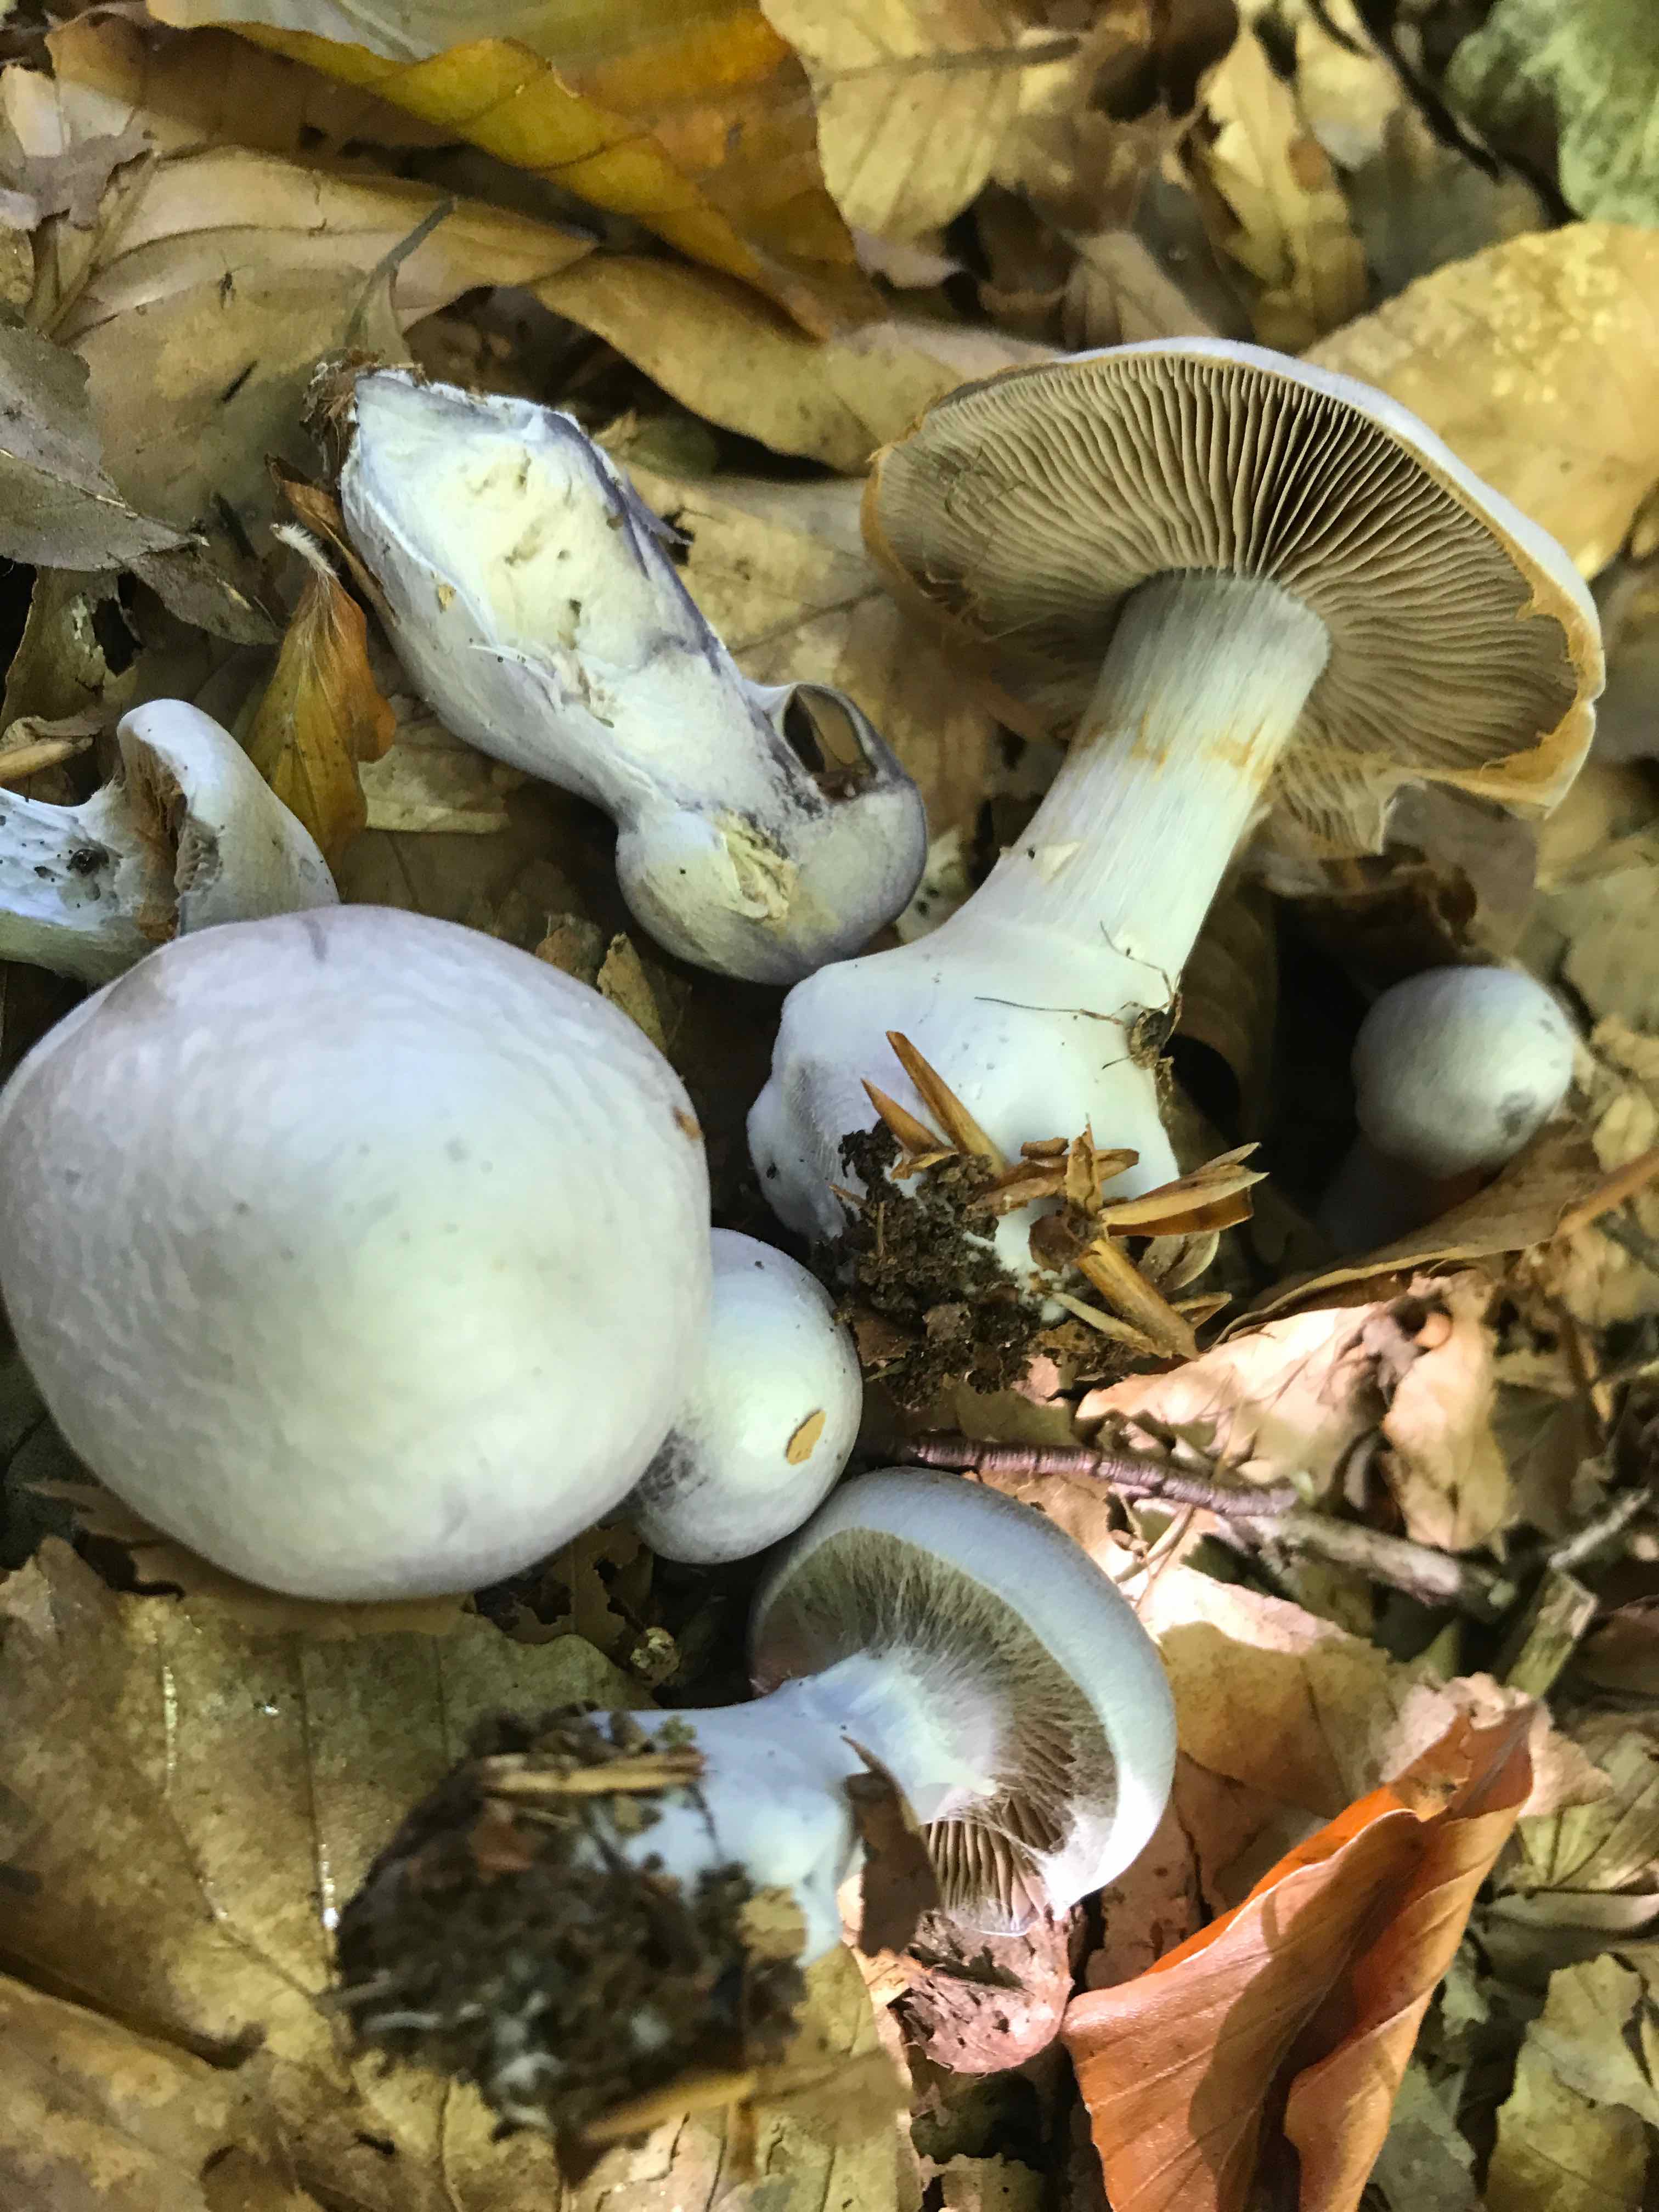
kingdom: Fungi
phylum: Basidiomycota
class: Agaricomycetes
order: Agaricales
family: Cortinariaceae
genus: Cortinarius
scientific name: Cortinarius alboviolaceus
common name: lysviolet slørhat
